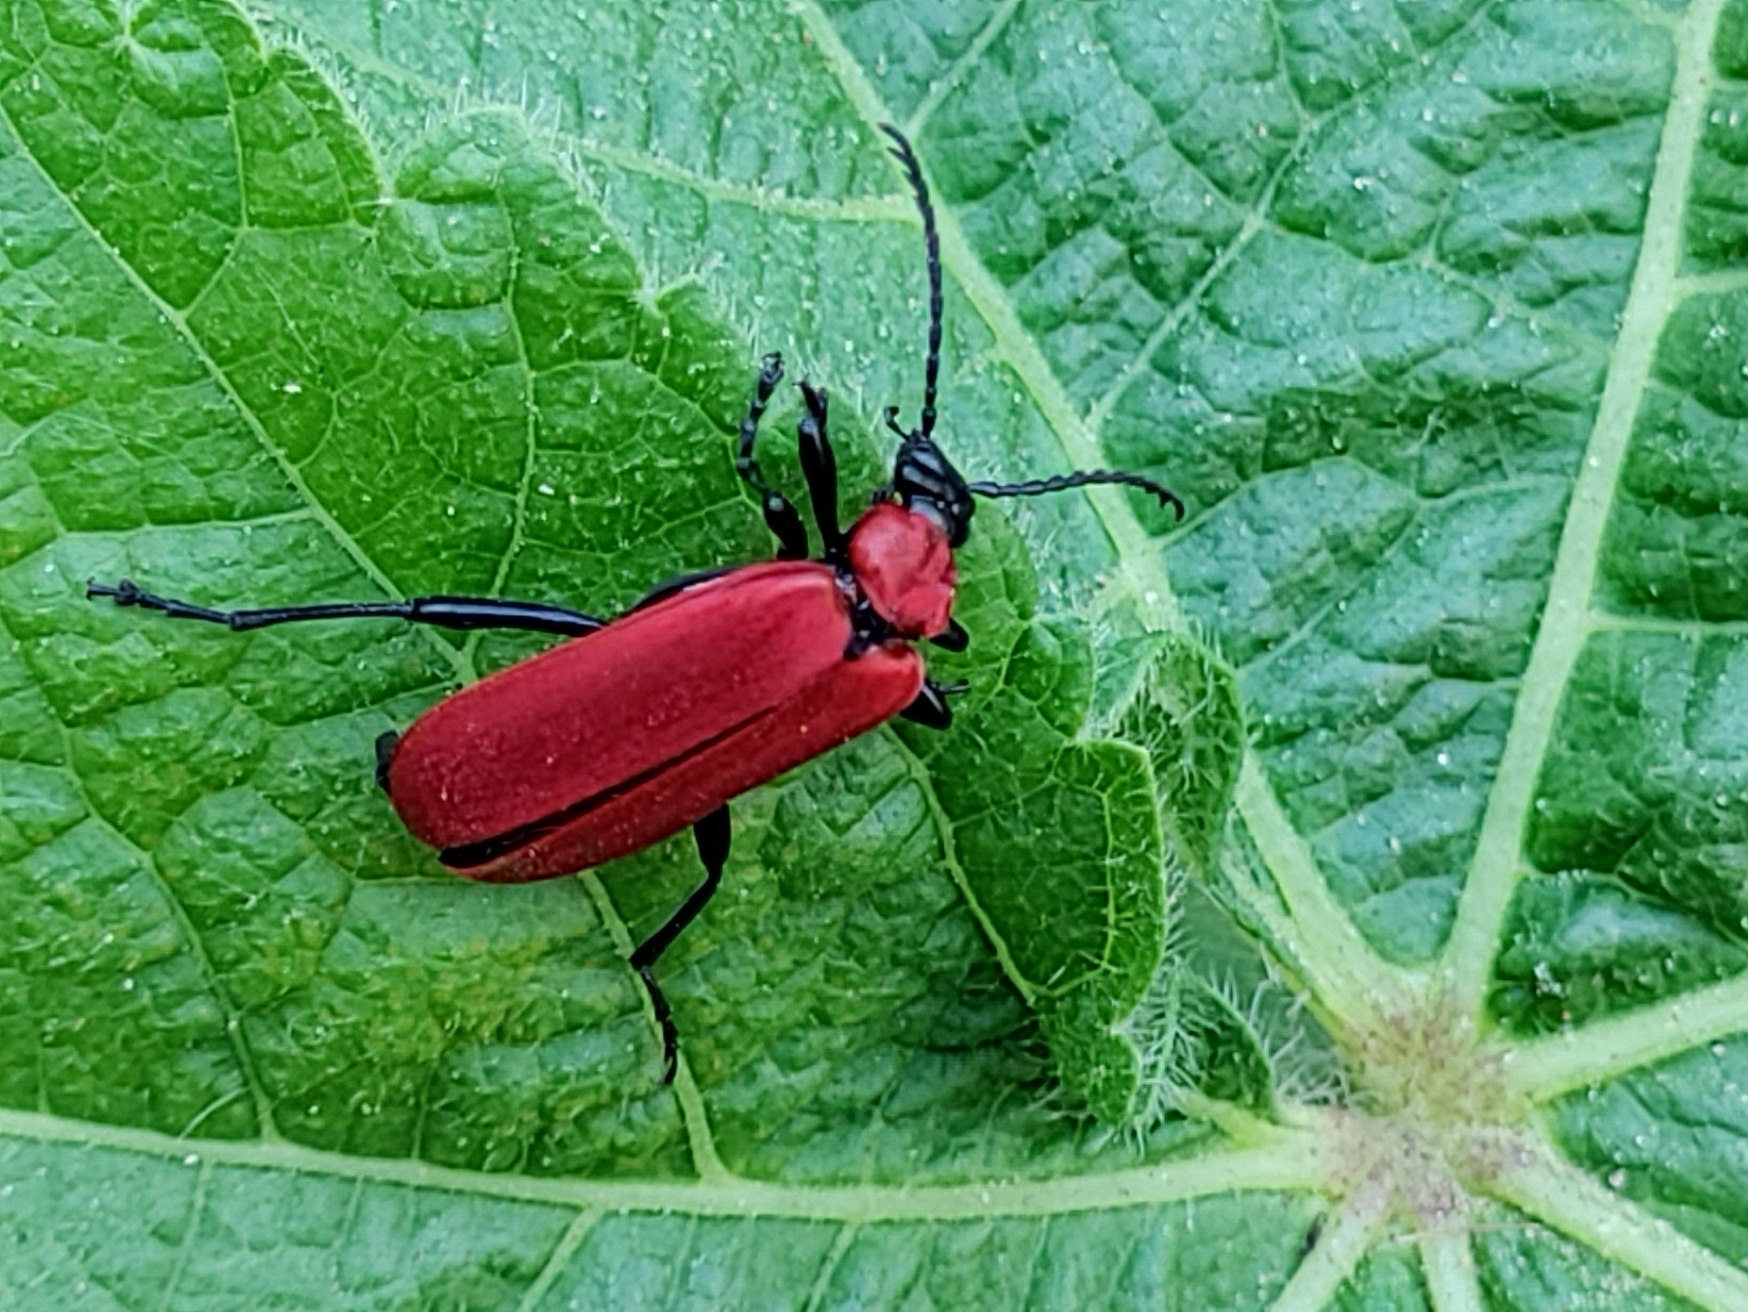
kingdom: Animalia
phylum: Arthropoda
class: Insecta
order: Coleoptera
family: Pyrochroidae
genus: Pyrochroa
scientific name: Pyrochroa coccinea
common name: Sorthovedet kardinalbille
